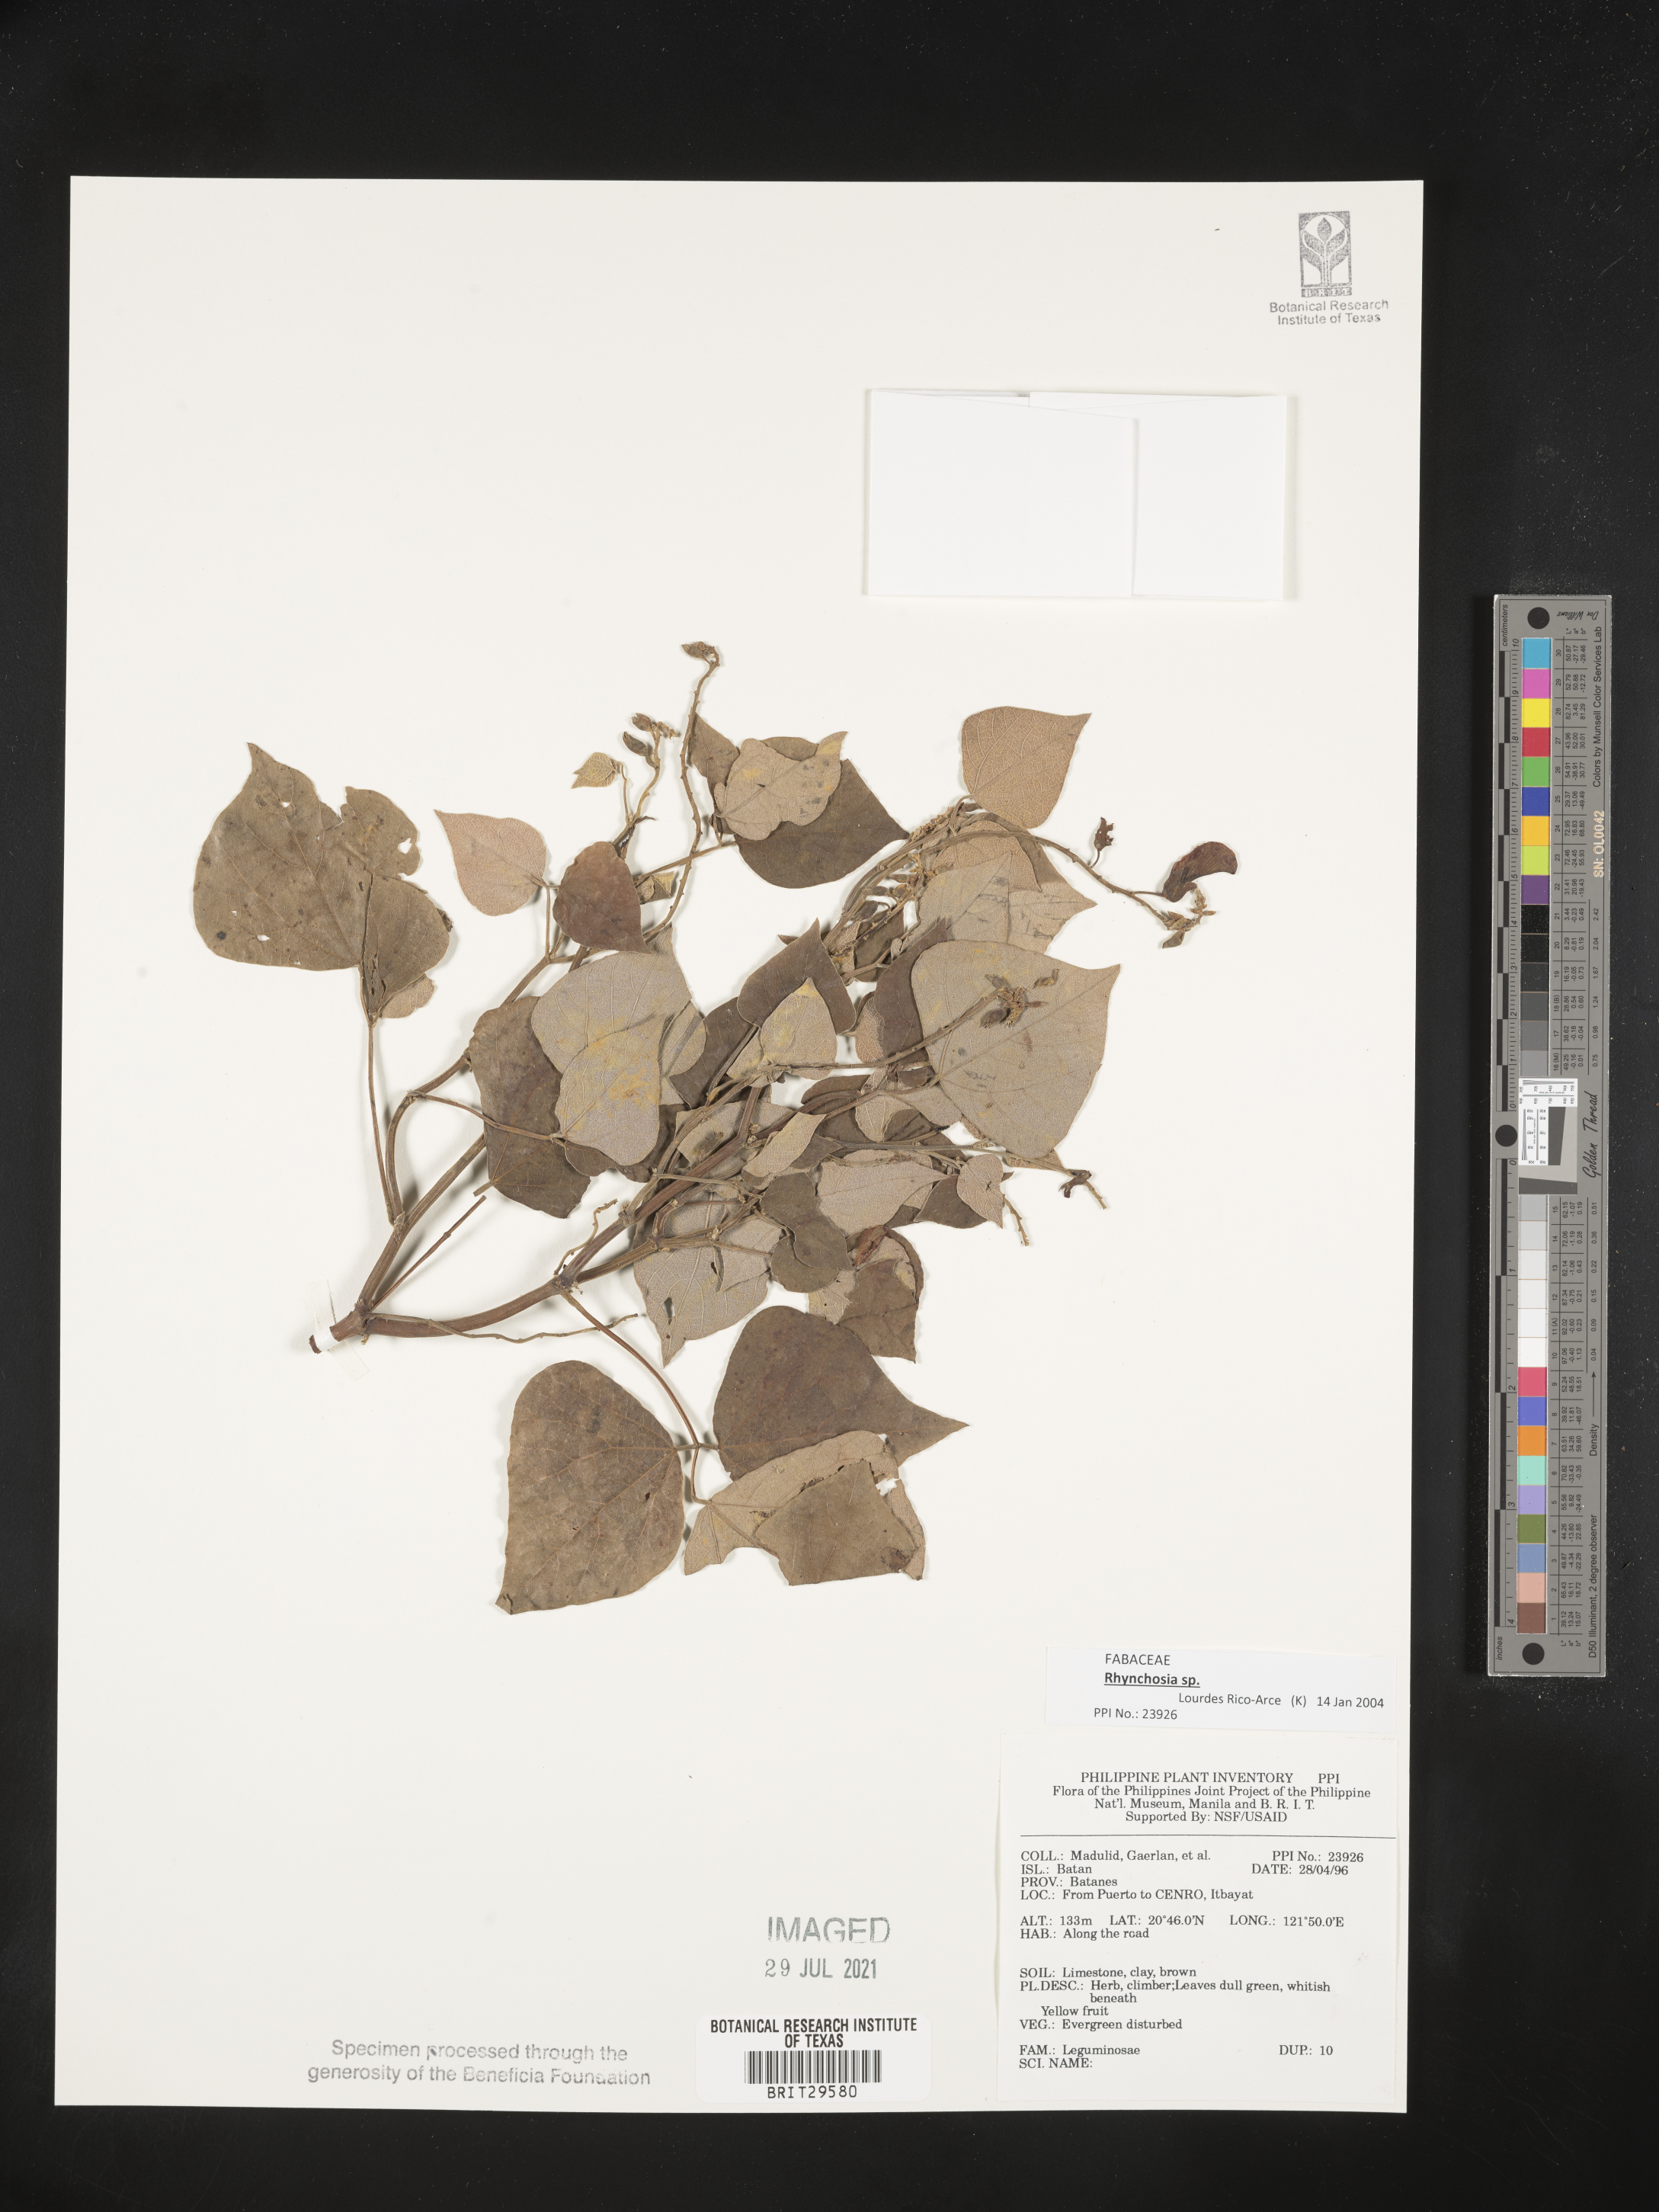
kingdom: Plantae
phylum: Tracheophyta
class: Magnoliopsida
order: Fabales
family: Fabaceae
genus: Rhynchosia
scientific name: Rhynchosia
